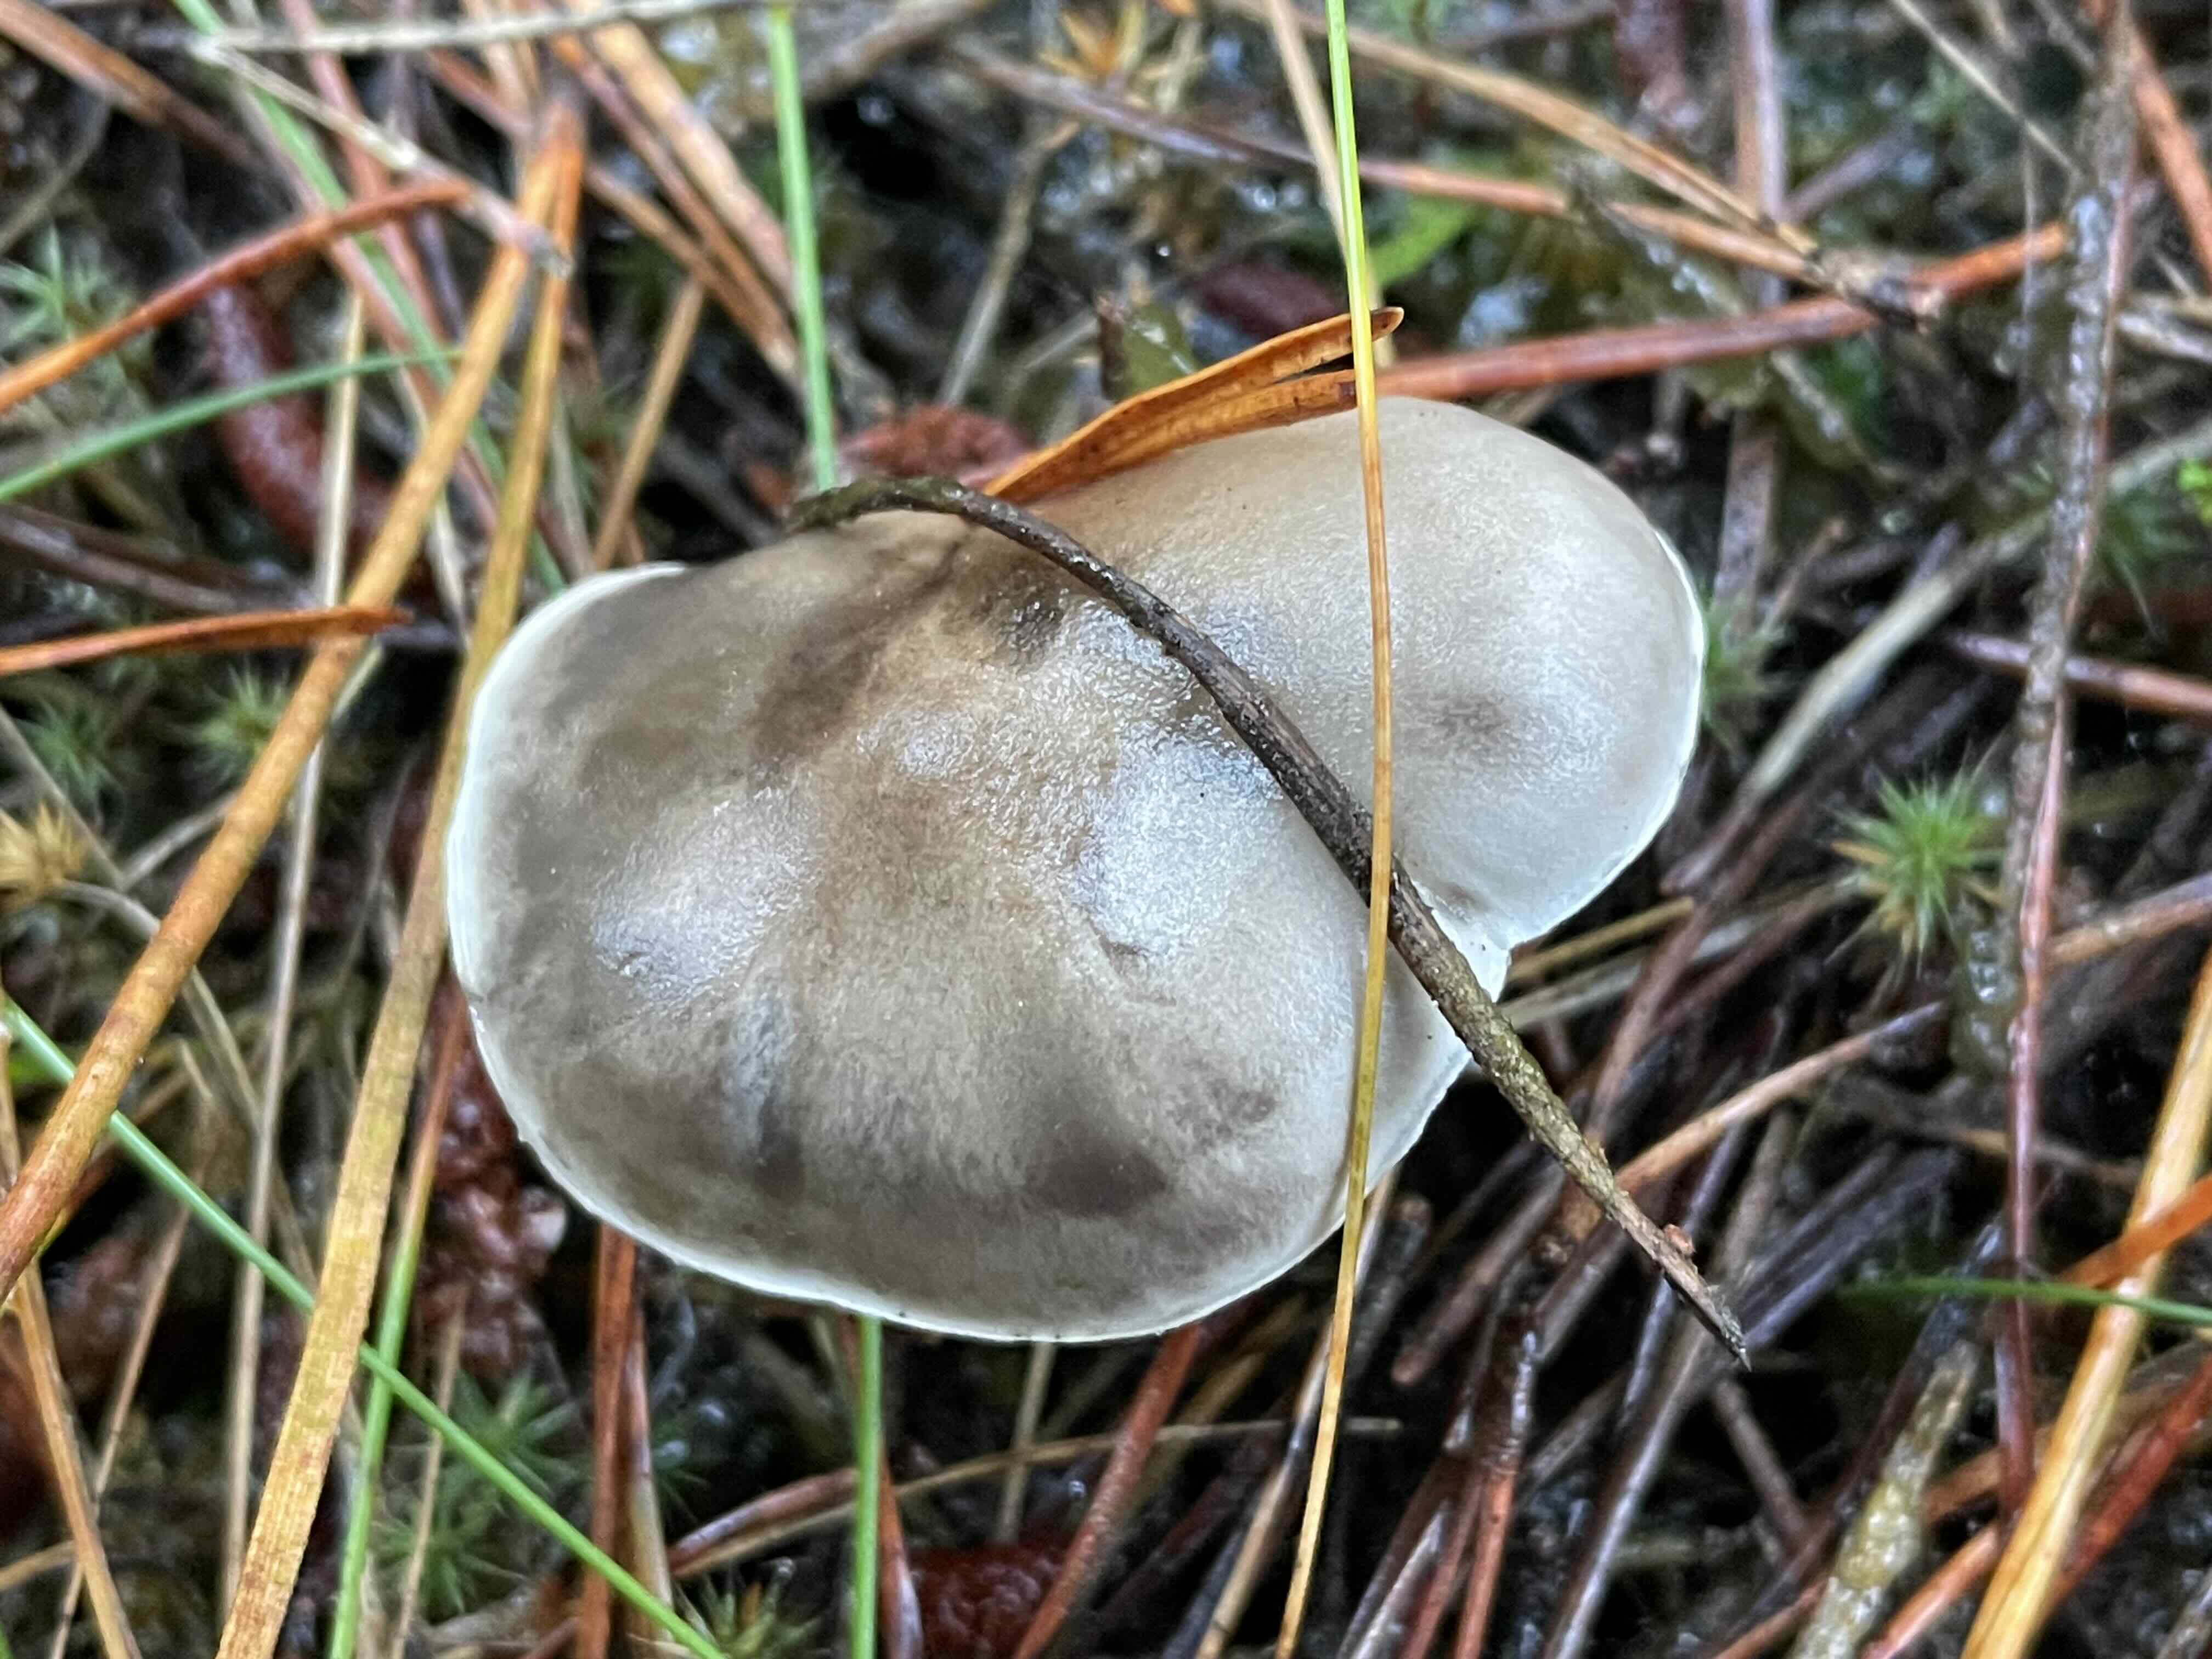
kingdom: Fungi
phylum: Basidiomycota
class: Agaricomycetes
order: Agaricales
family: Tricholomataceae
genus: Tricholoma
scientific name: Tricholoma sudum
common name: tør ridderhat
